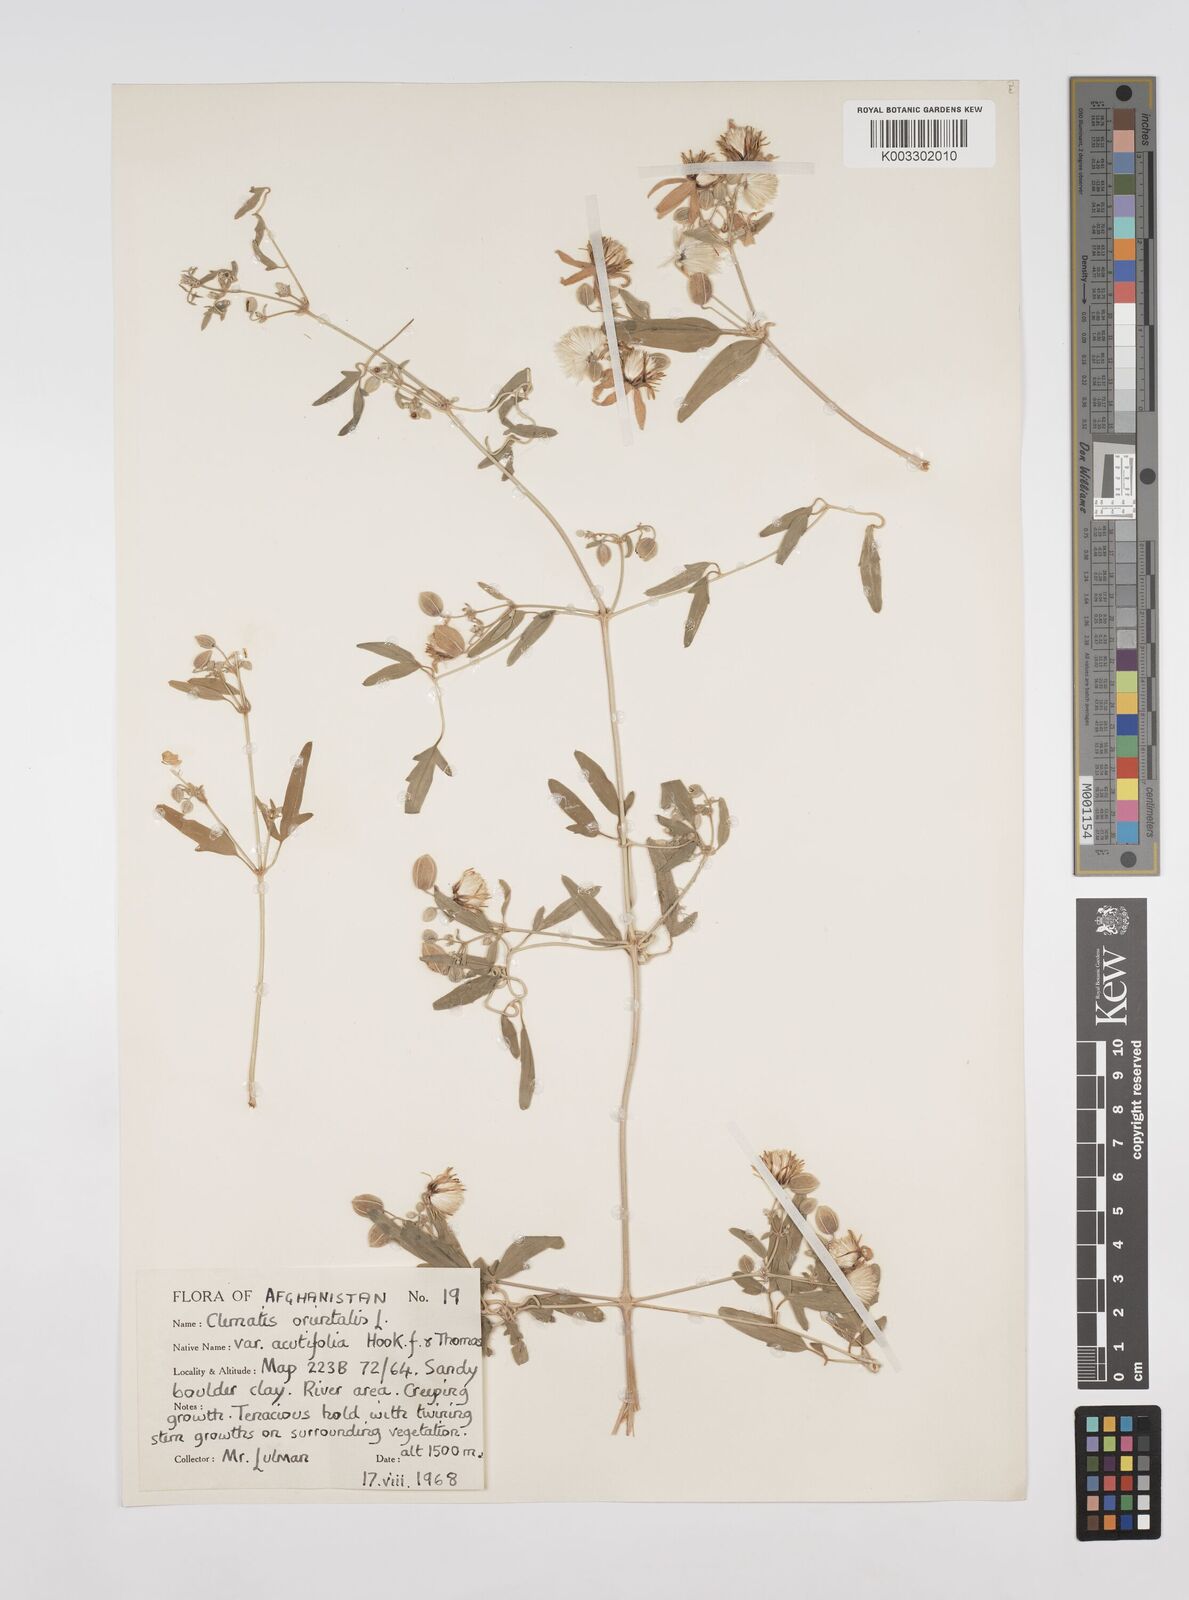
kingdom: Plantae
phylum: Tracheophyta
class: Magnoliopsida
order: Ranunculales
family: Ranunculaceae
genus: Clematis
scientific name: Clematis orientalis
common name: Oriental virgin's-bower
